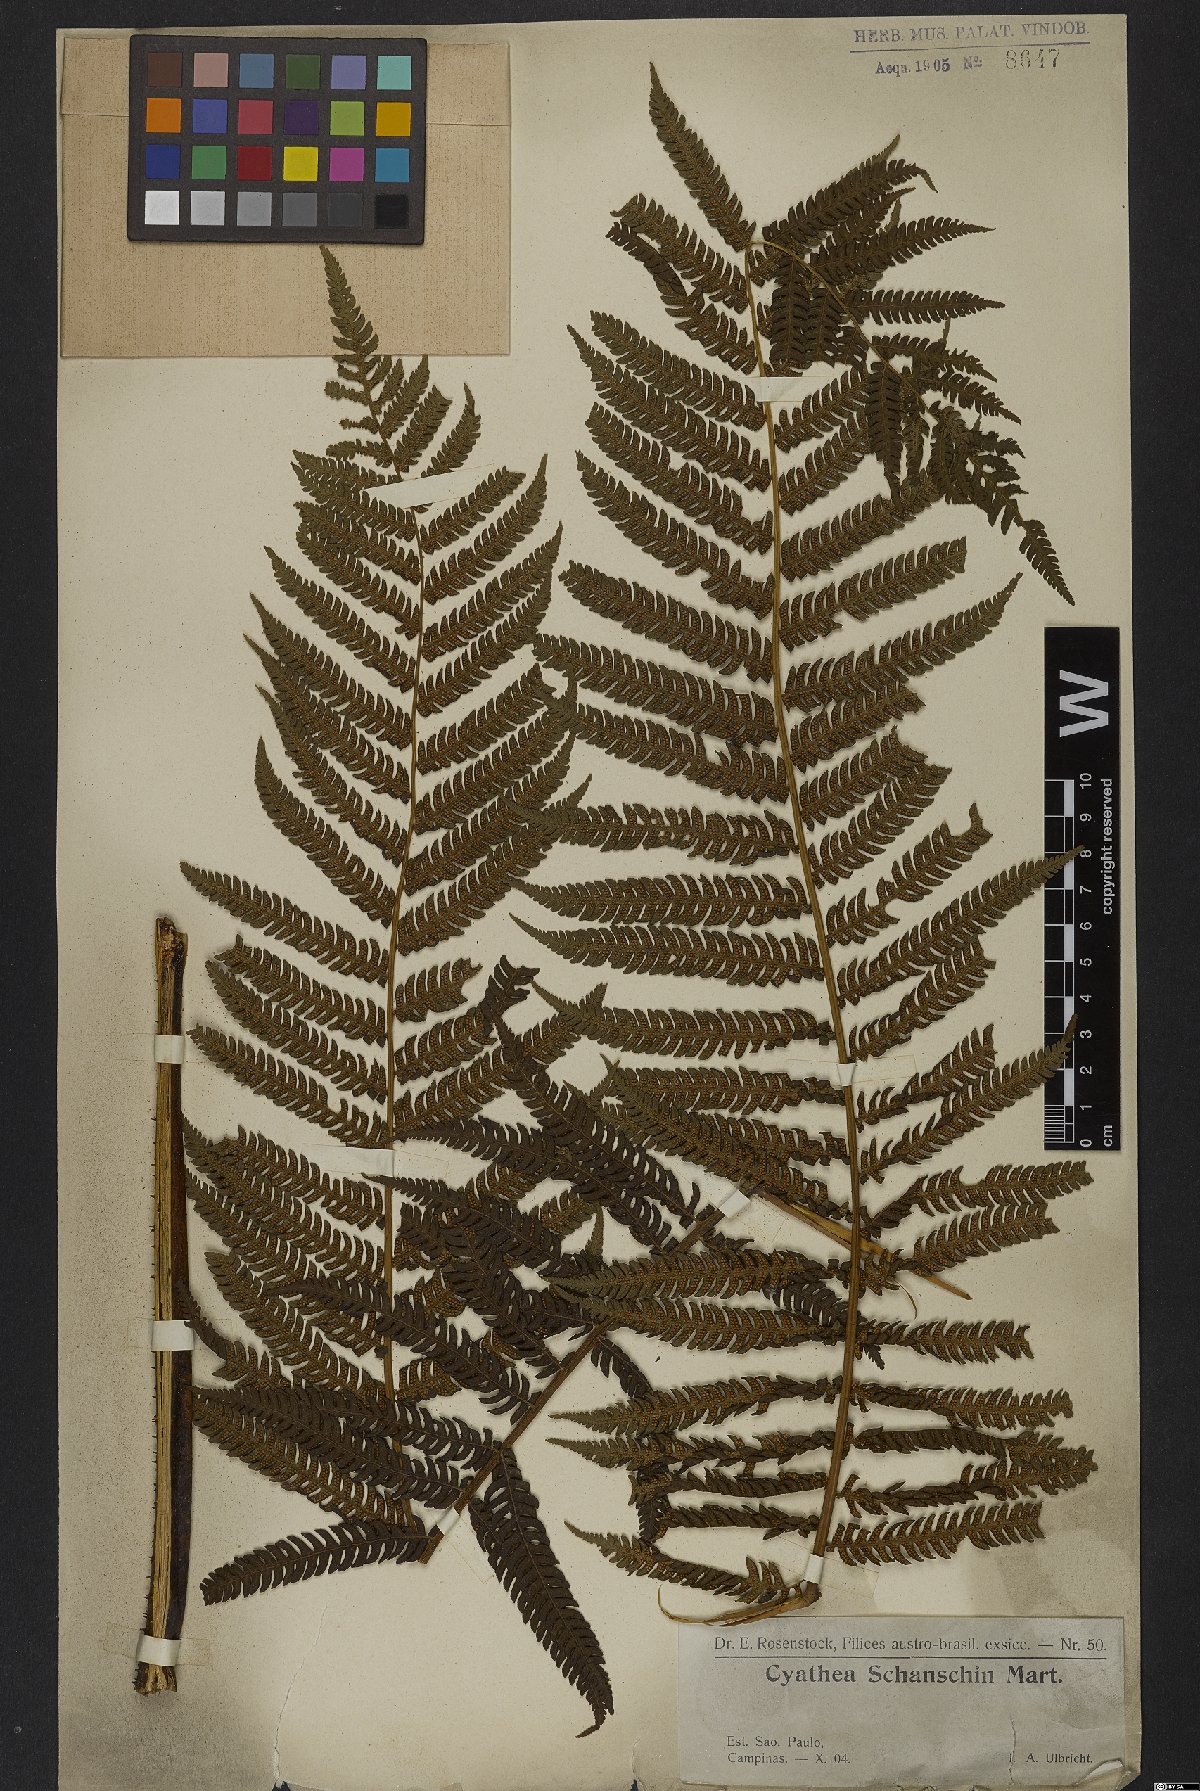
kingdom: Plantae
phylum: Tracheophyta
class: Polypodiopsida
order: Cyatheales
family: Cyatheaceae
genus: Cyathea
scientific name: Cyathea delgadii
